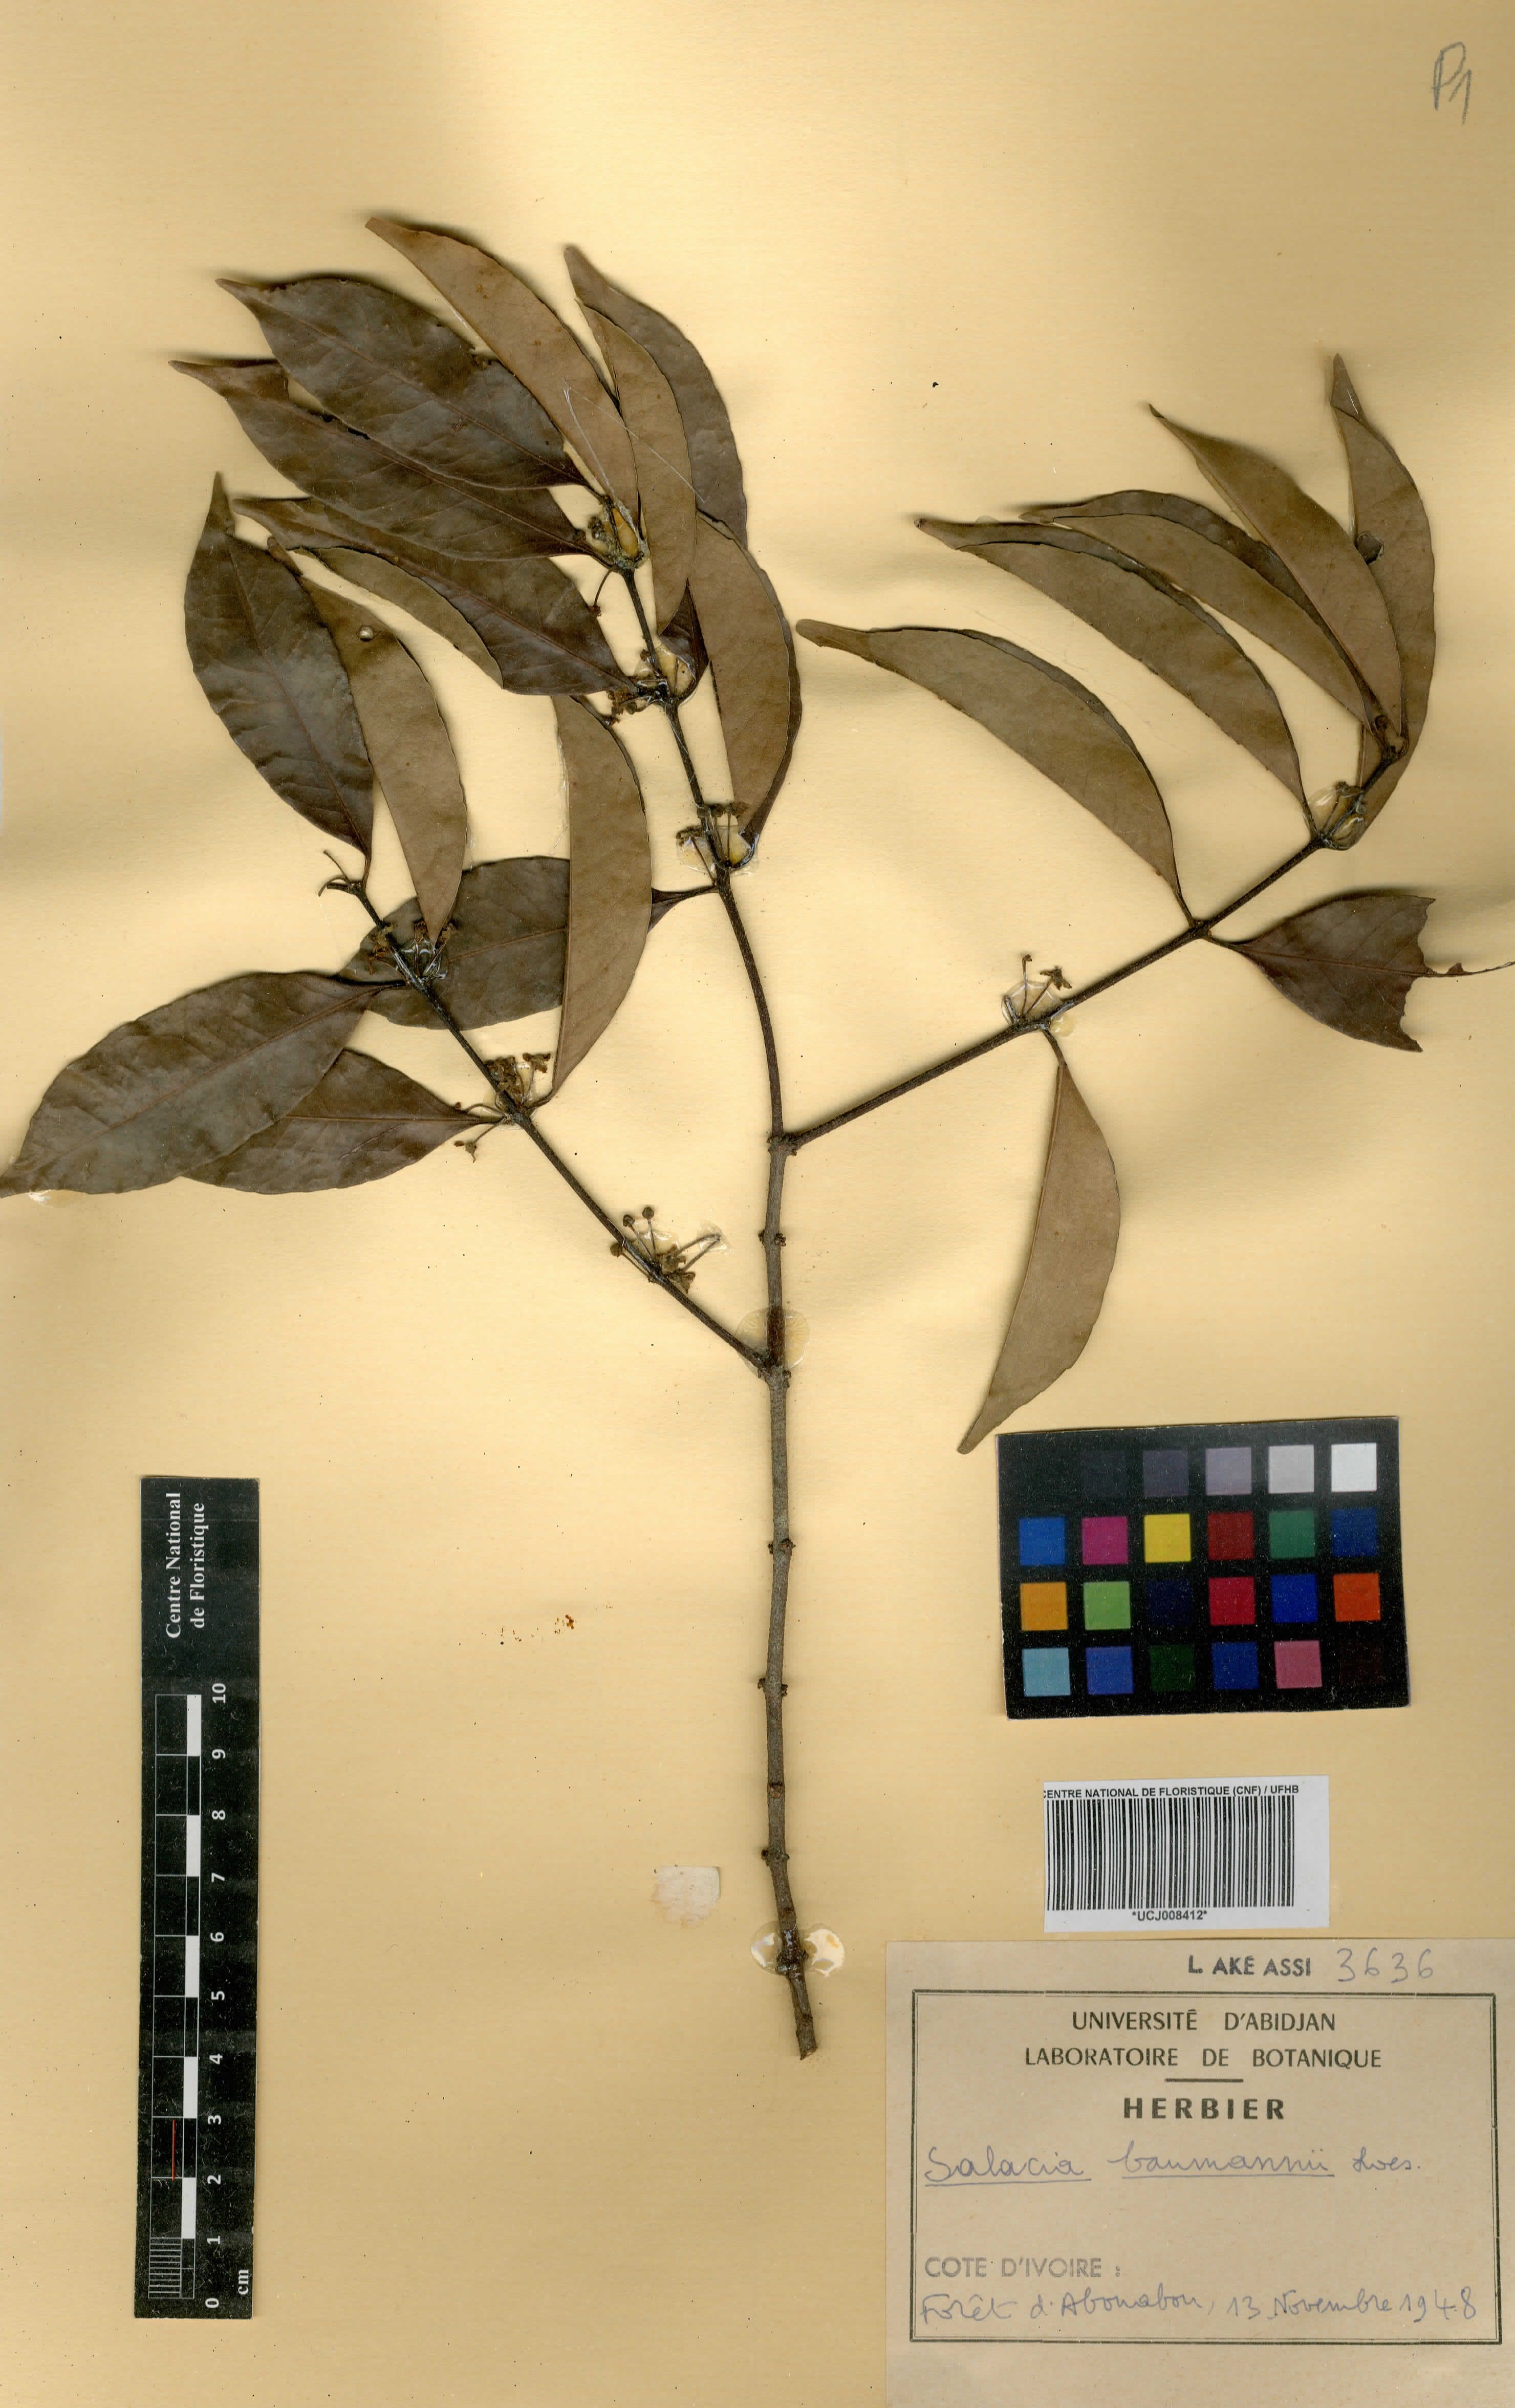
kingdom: Plantae
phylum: Tracheophyta
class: Magnoliopsida
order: Celastrales
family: Celastraceae
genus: Salacia
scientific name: Salacia leptoclada
